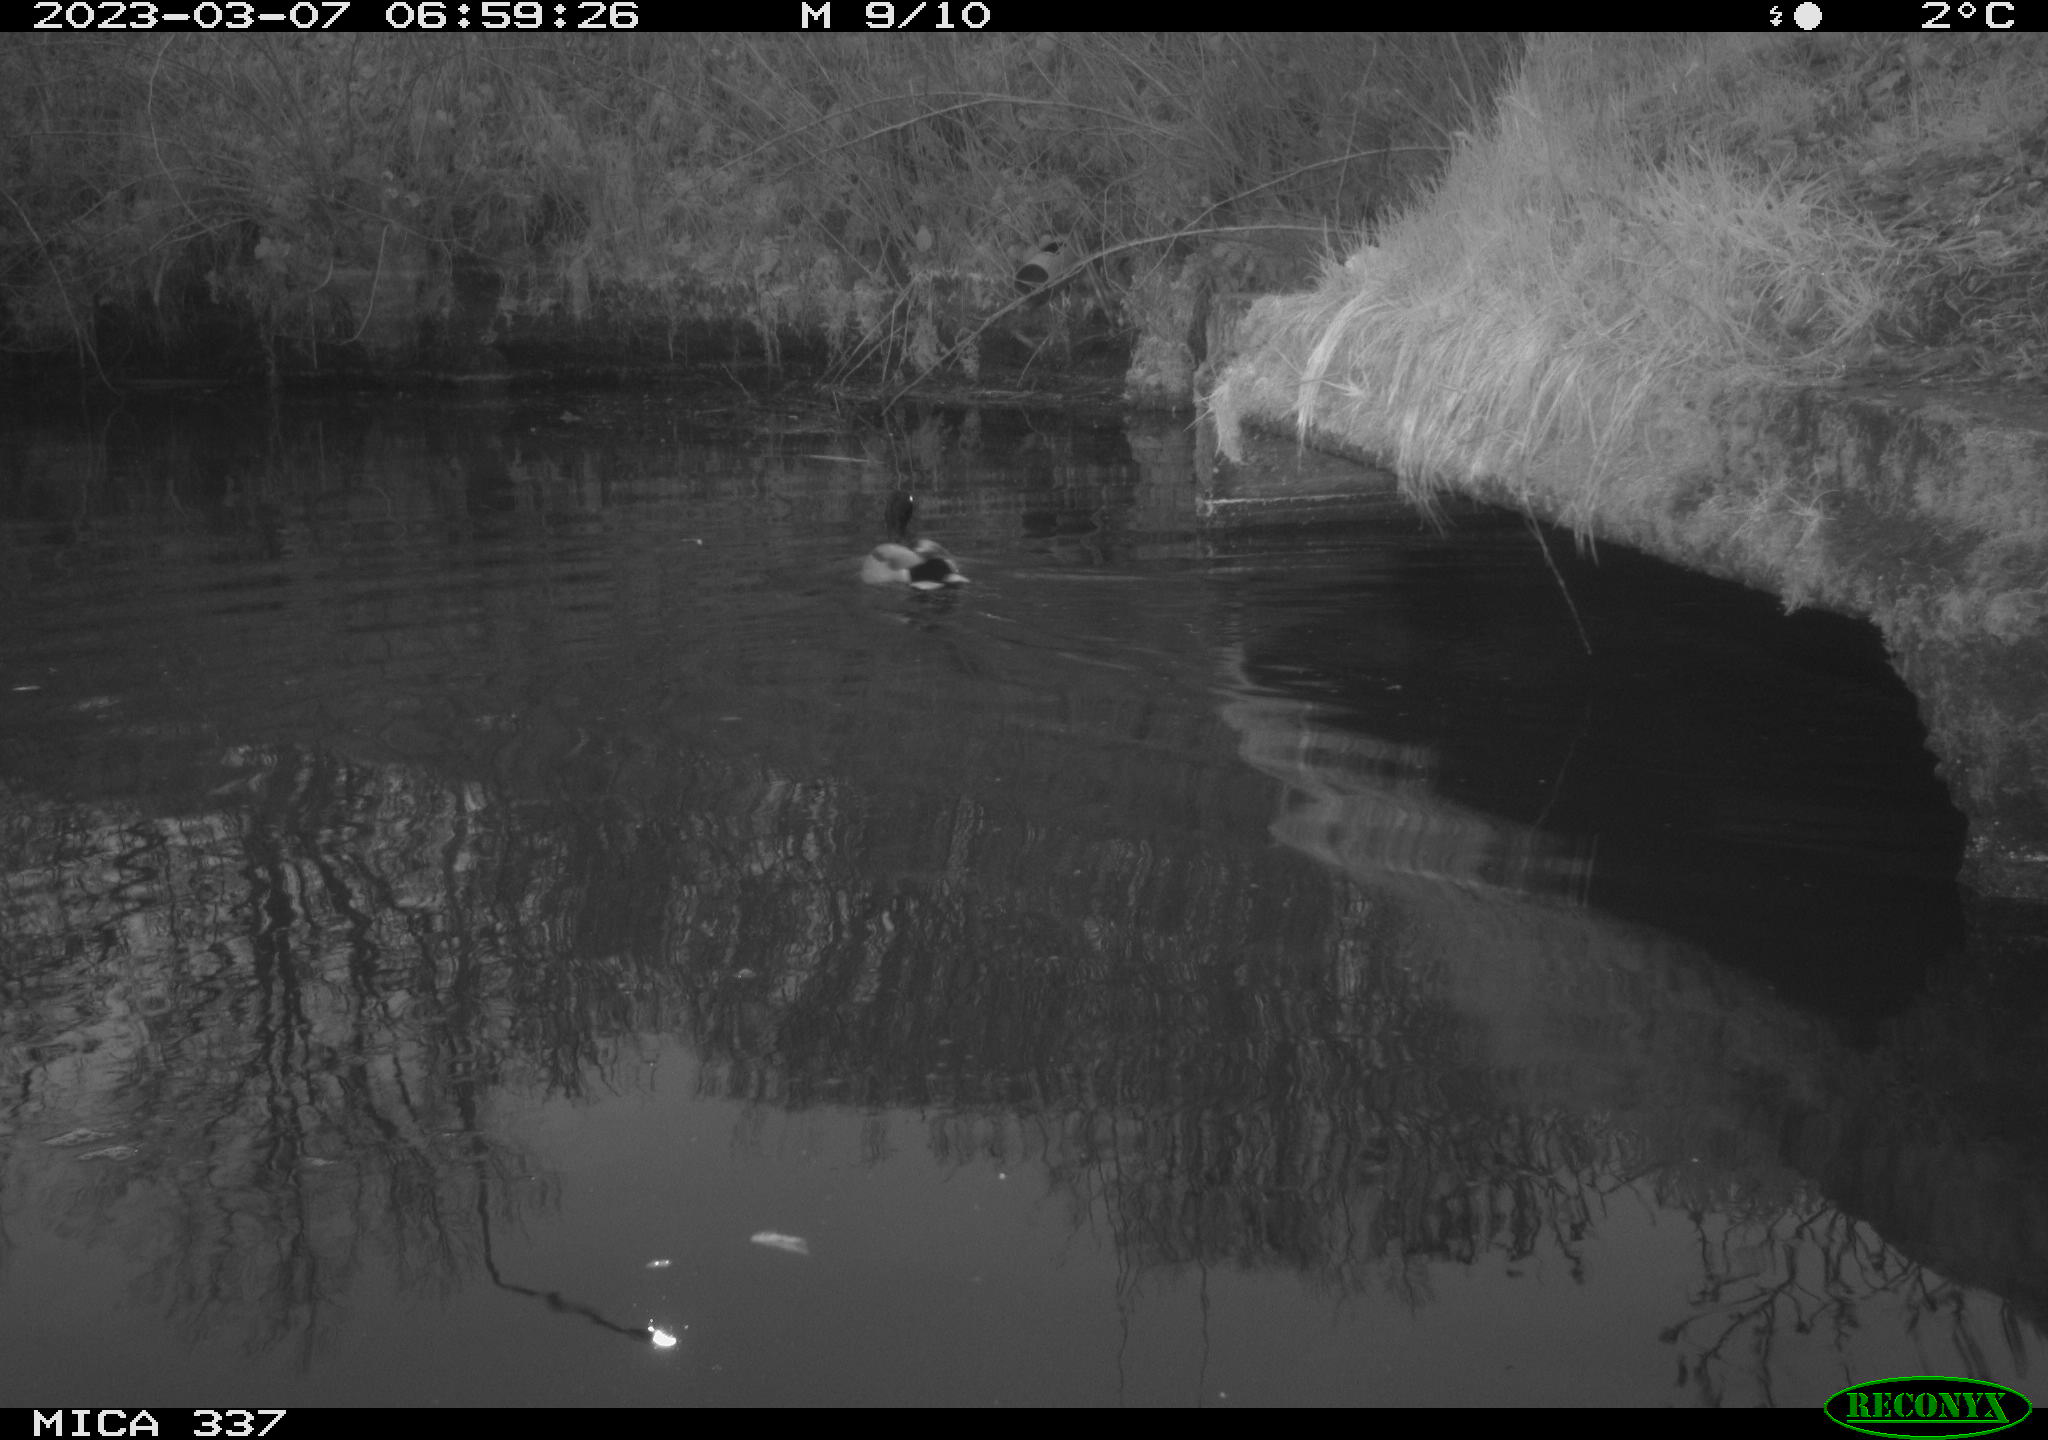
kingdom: Animalia
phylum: Chordata
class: Aves
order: Anseriformes
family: Anatidae
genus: Anas
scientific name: Anas
